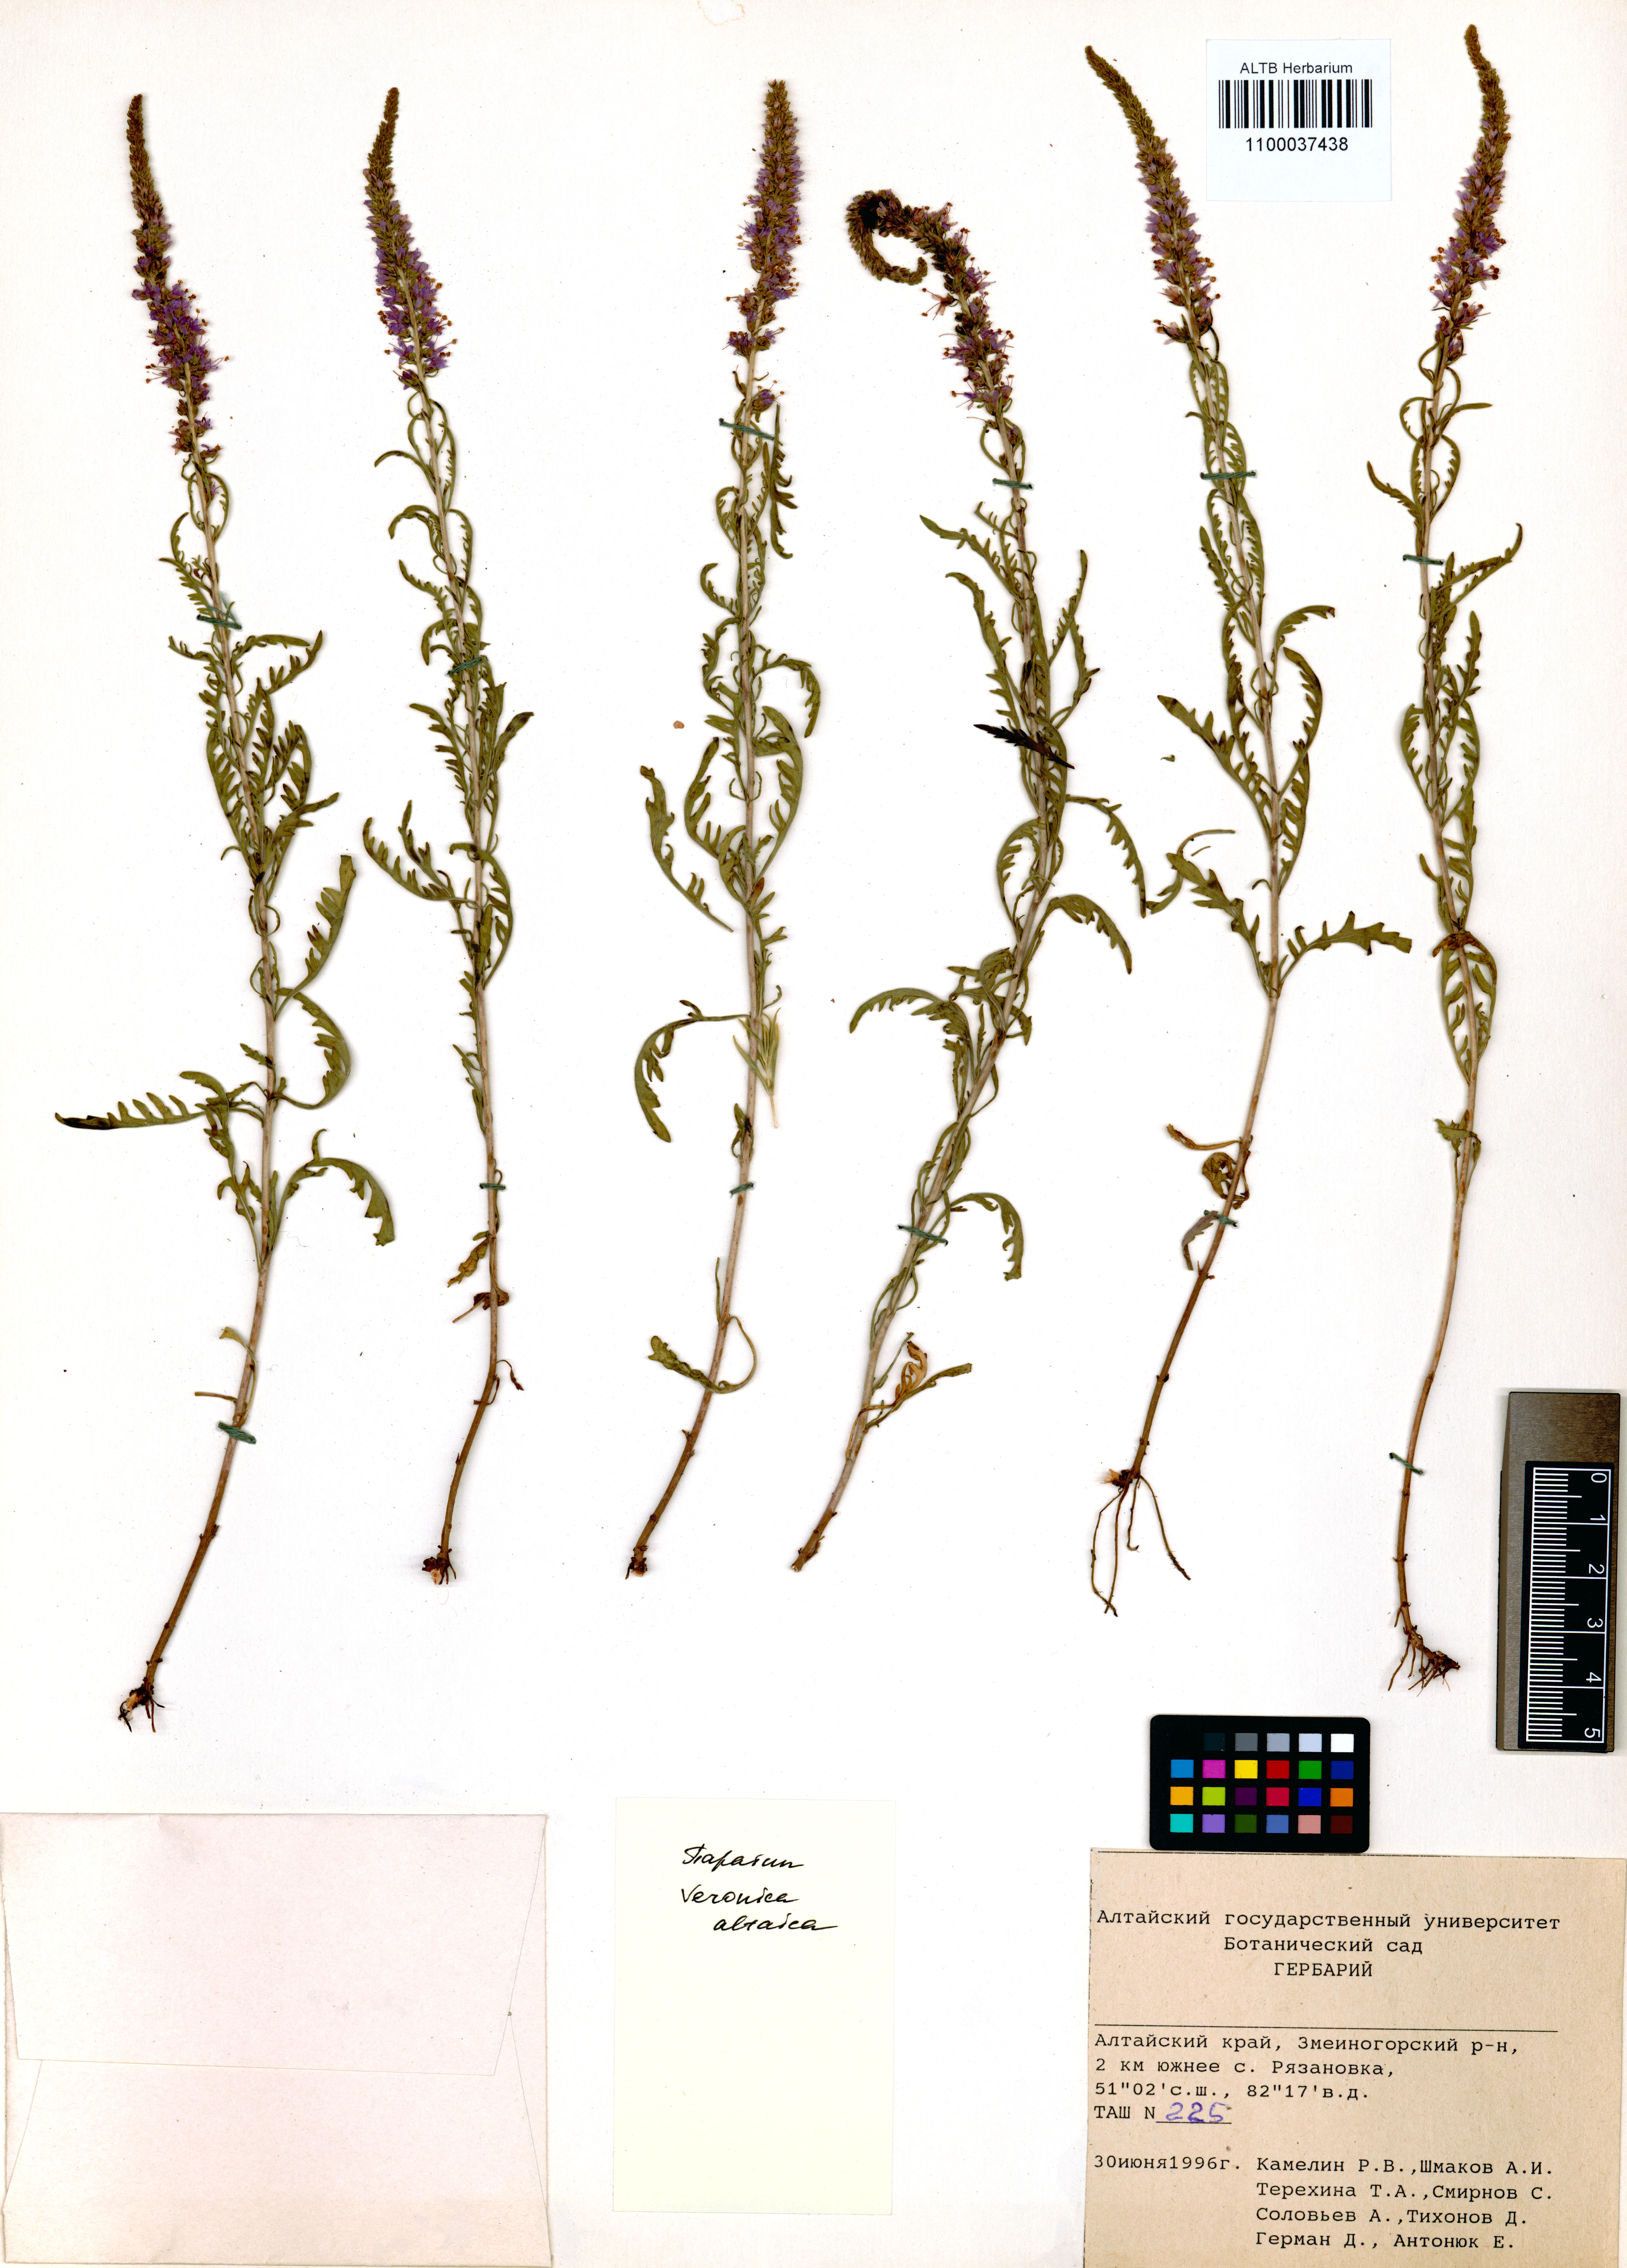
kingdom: Plantae
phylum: Tracheophyta
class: Magnoliopsida
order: Lamiales
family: Plantaginaceae
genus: Veronica
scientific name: Veronica altaica
